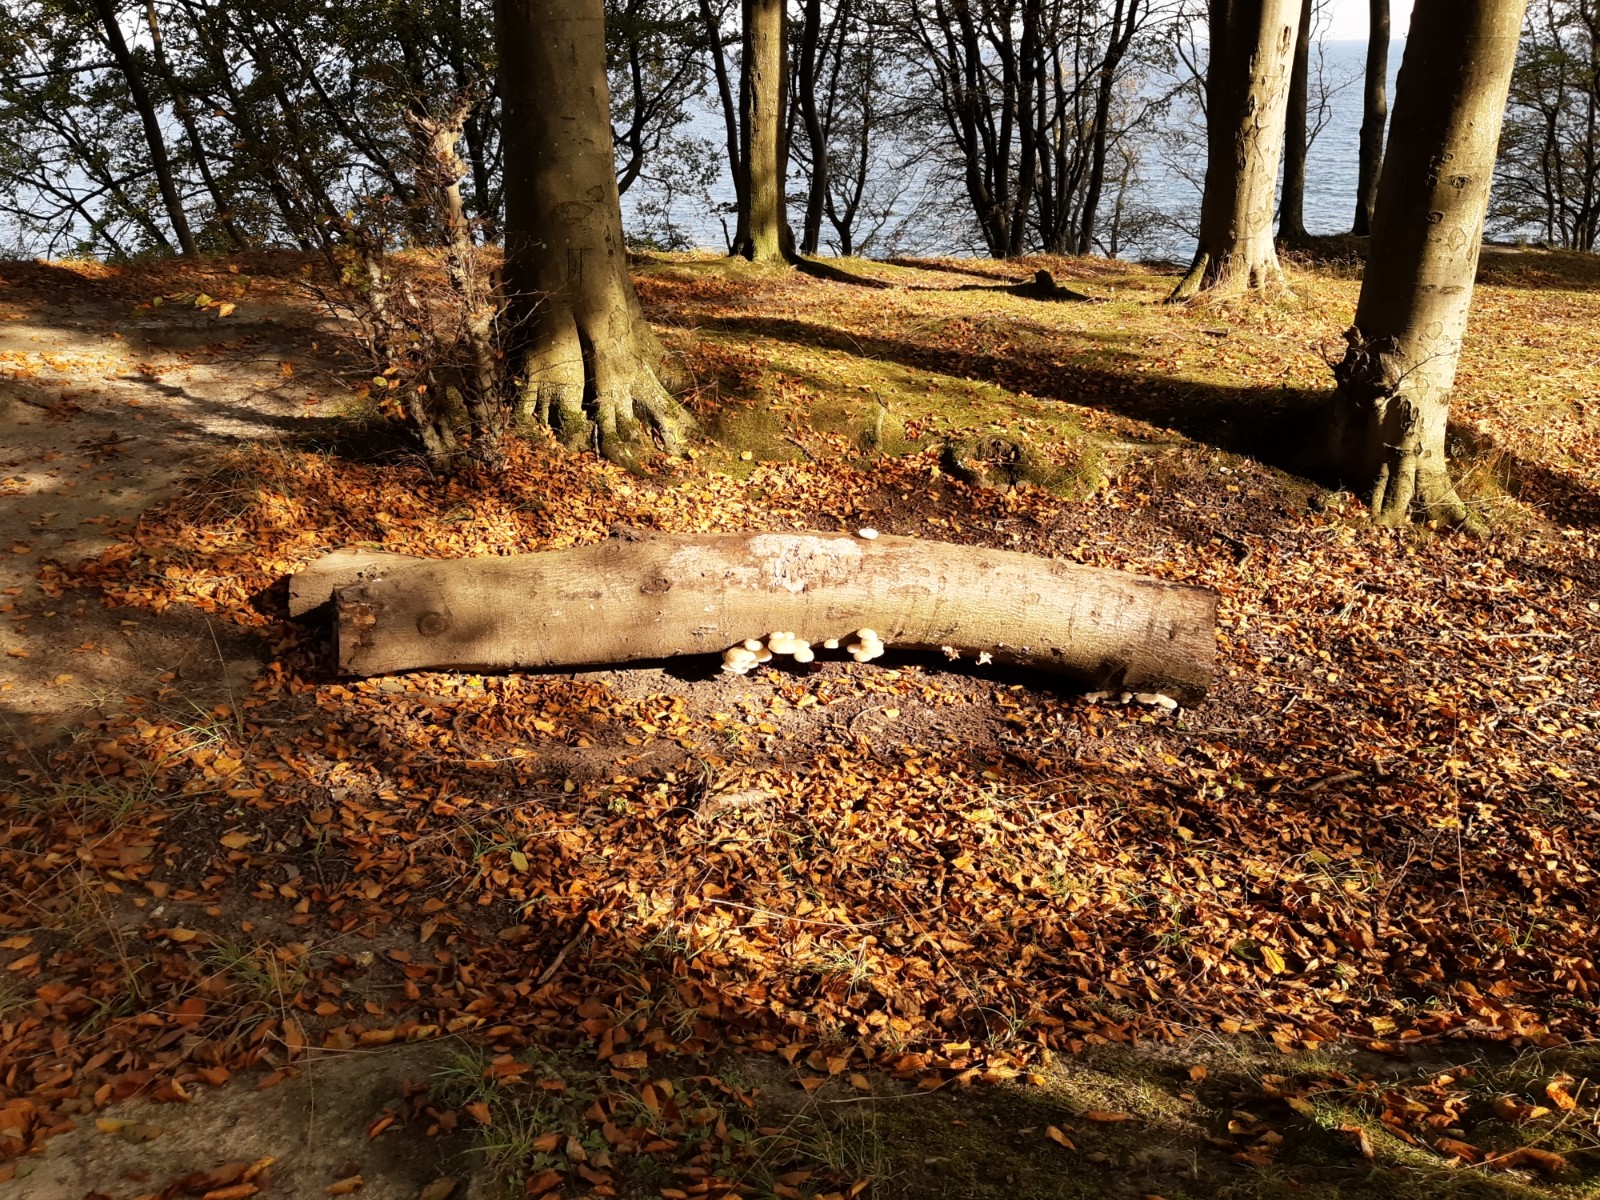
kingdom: Fungi
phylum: Basidiomycota
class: Agaricomycetes
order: Agaricales
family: Physalacriaceae
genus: Mucidula
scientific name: Mucidula mucida
